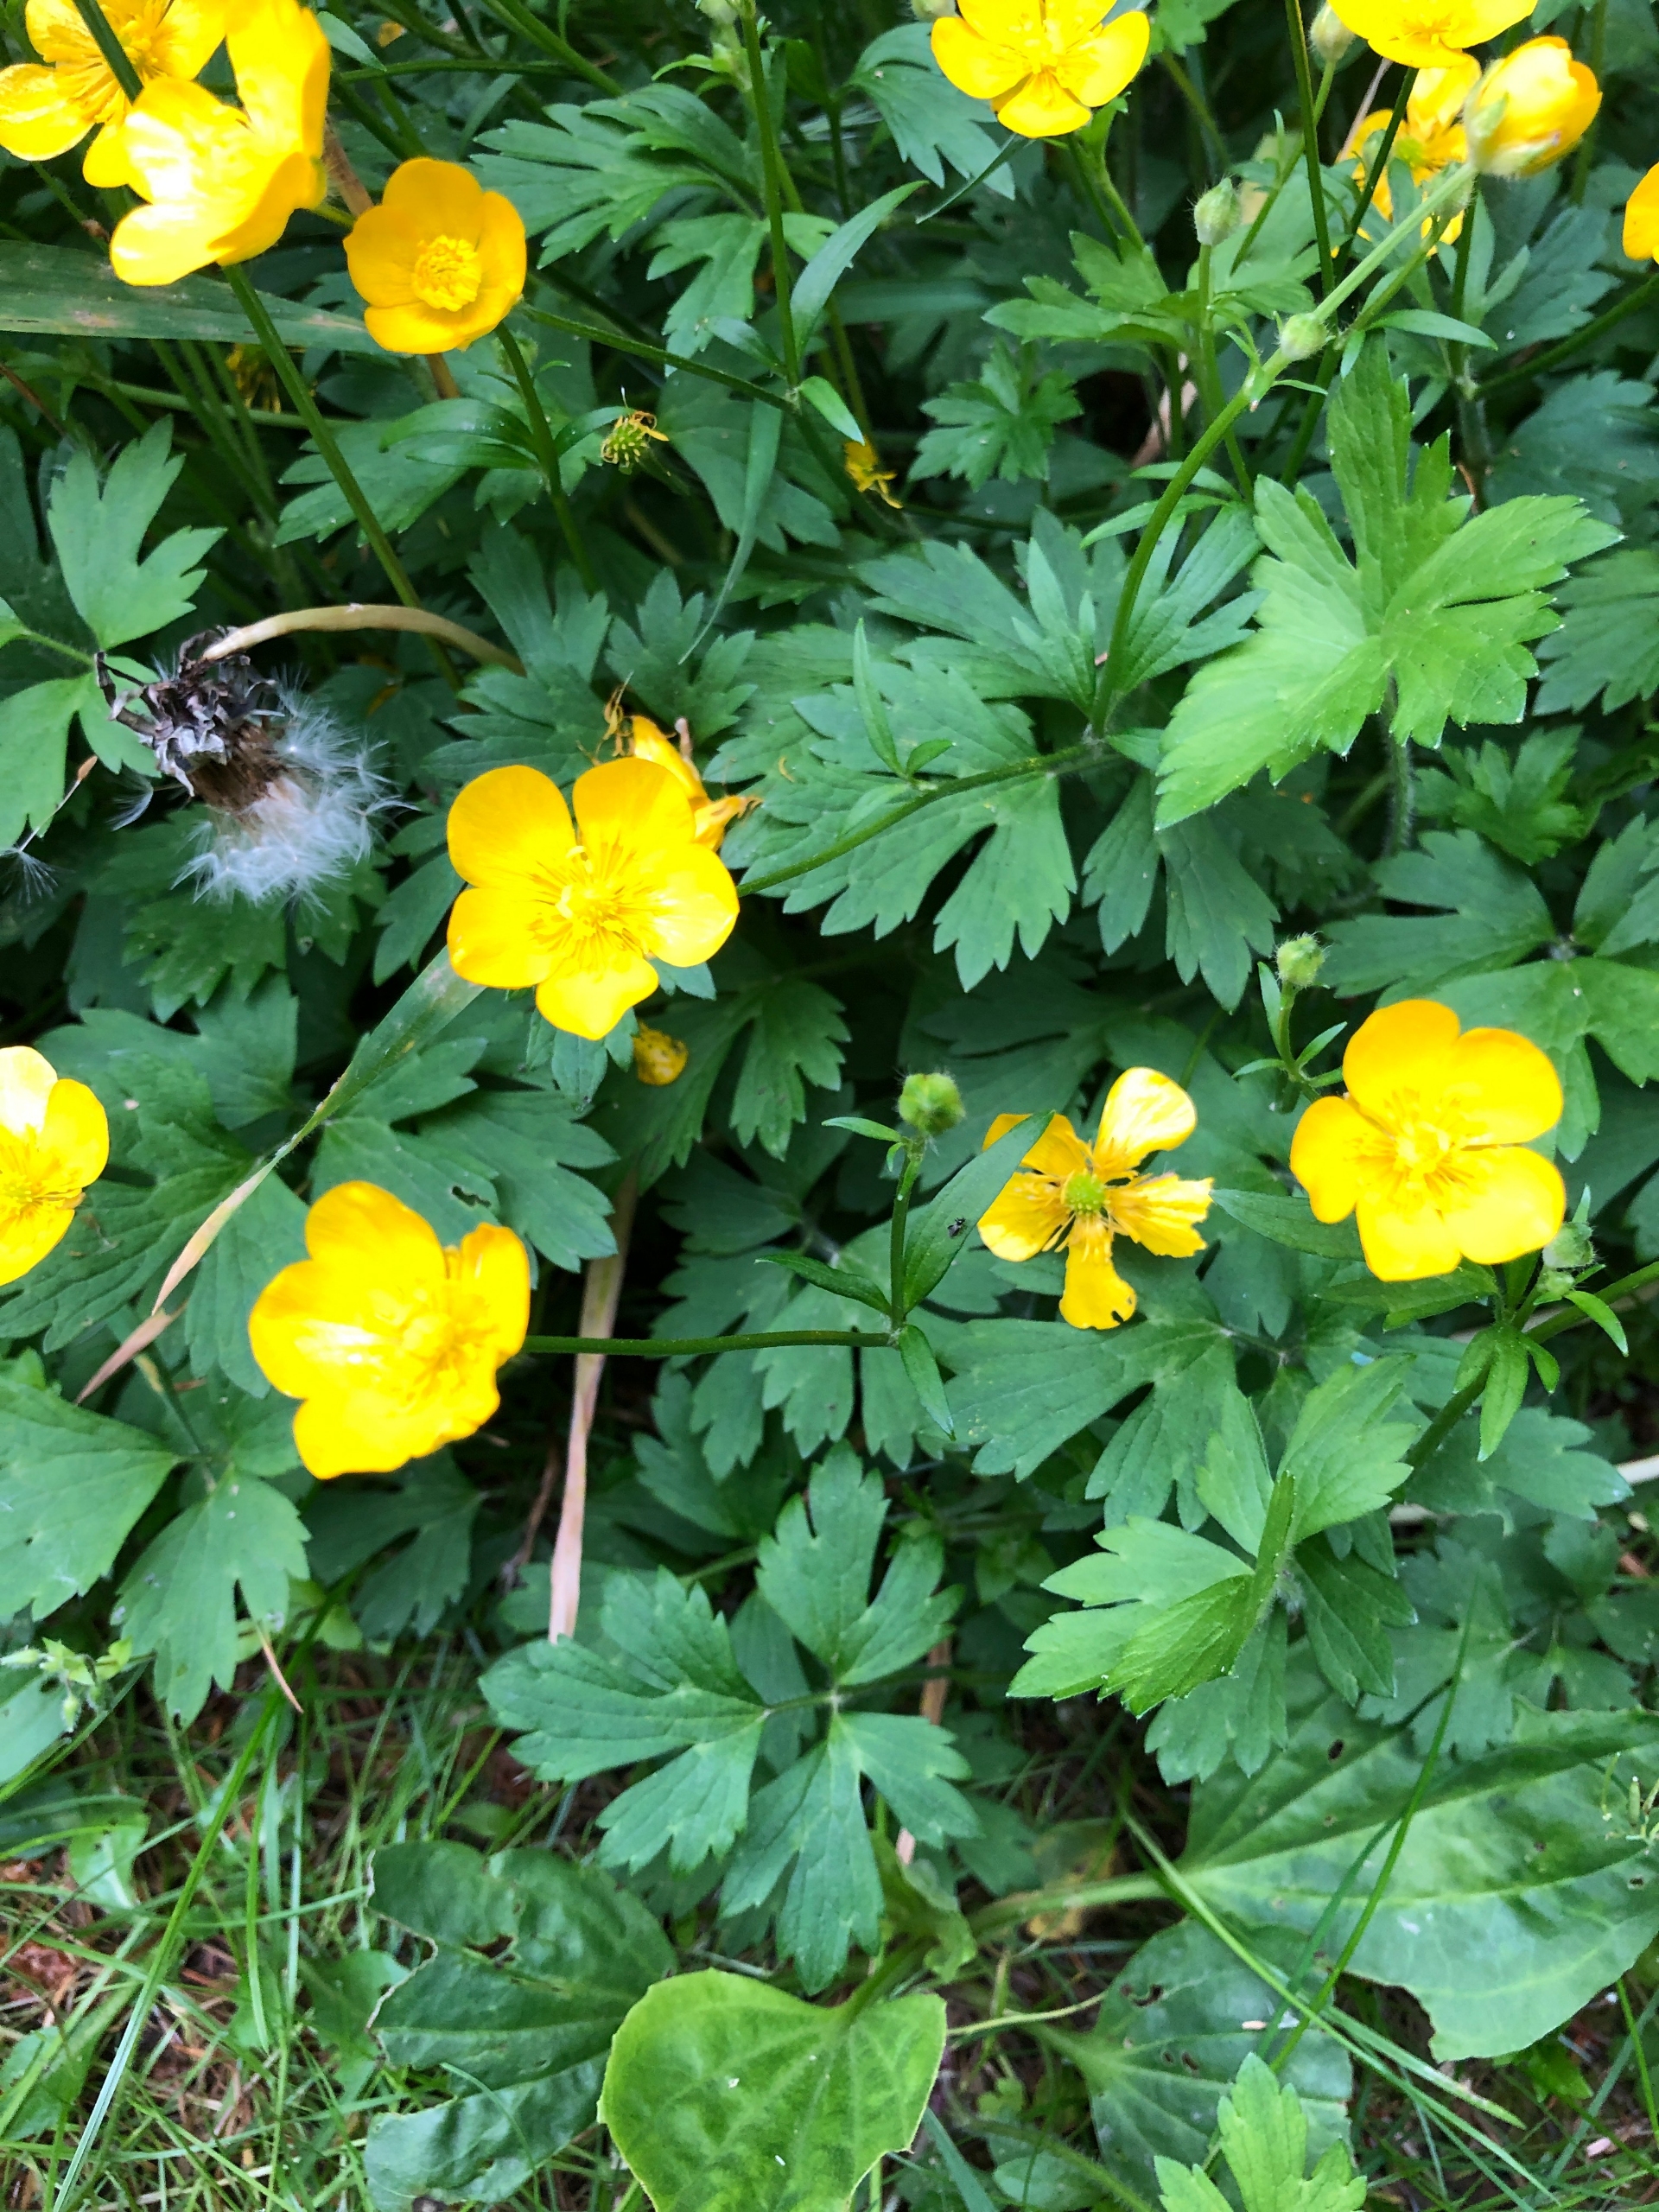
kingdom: Plantae
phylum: Tracheophyta
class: Magnoliopsida
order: Ranunculales
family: Ranunculaceae
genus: Ranunculus
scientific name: Ranunculus repens
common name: Lav ranunkel
